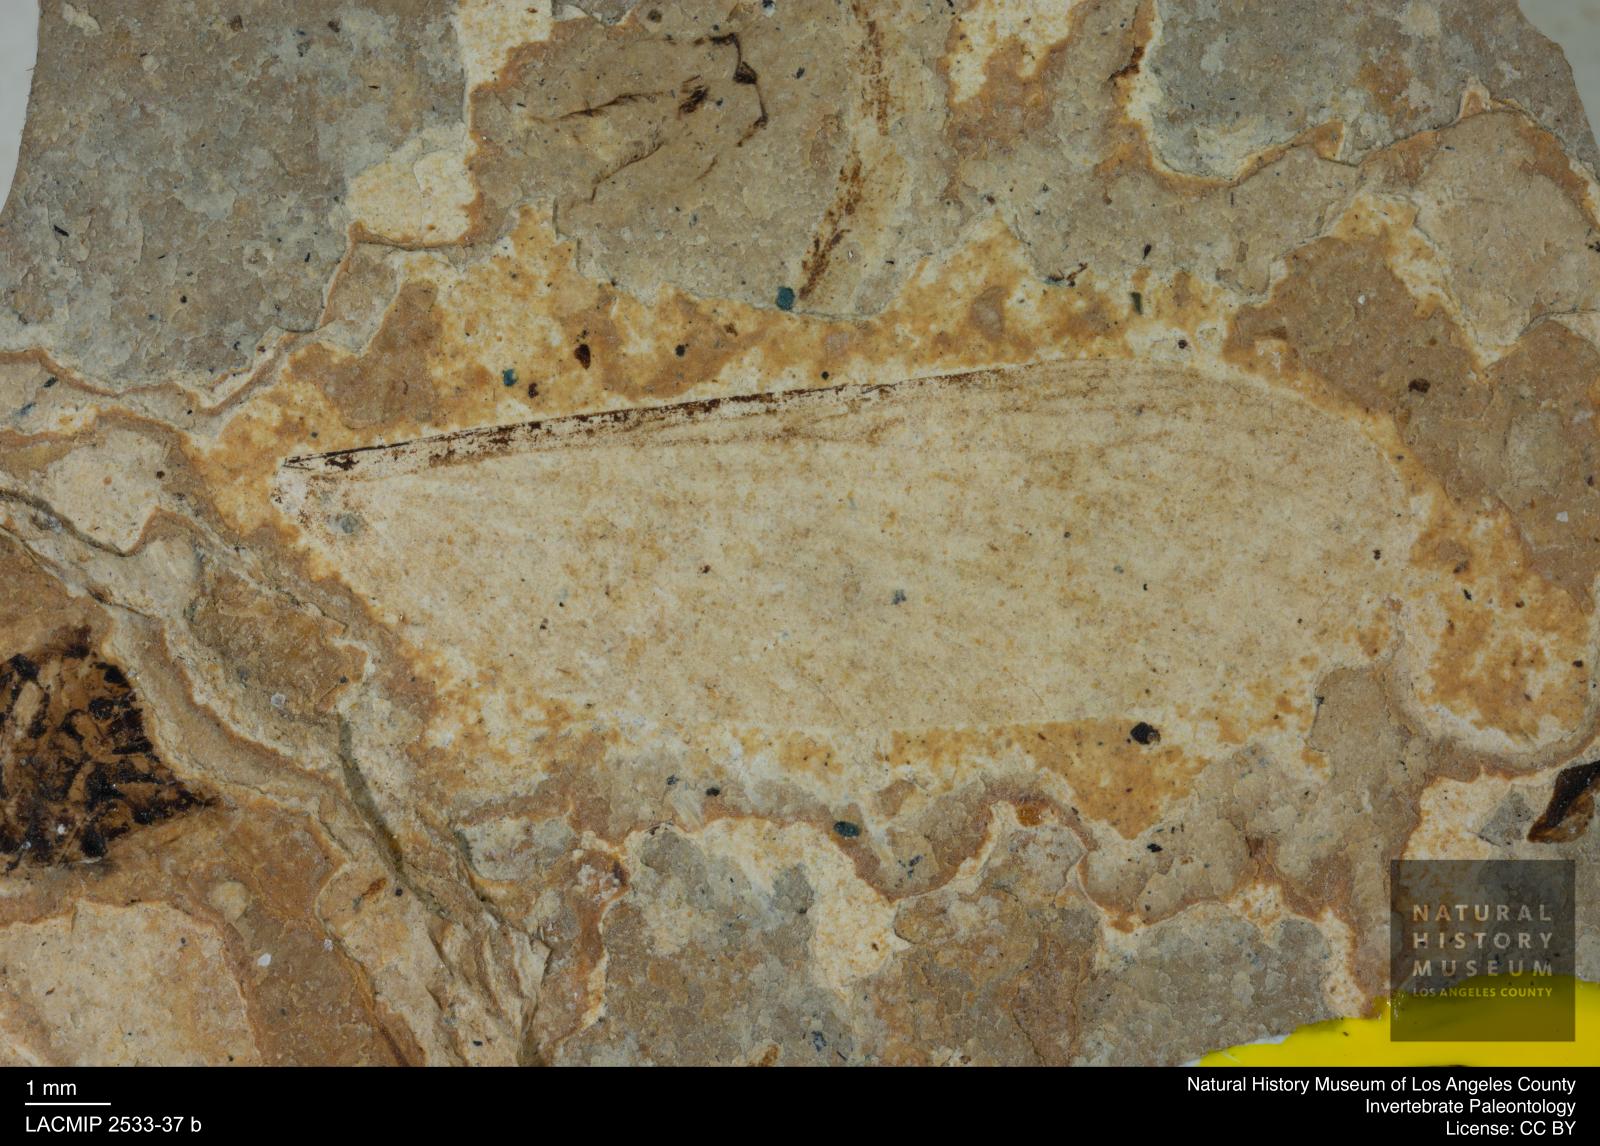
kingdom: Animalia
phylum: Arthropoda
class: Insecta
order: Blattodea
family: Hodotermitidae
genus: Ulmeriella
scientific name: Ulmeriella bauckhorni
